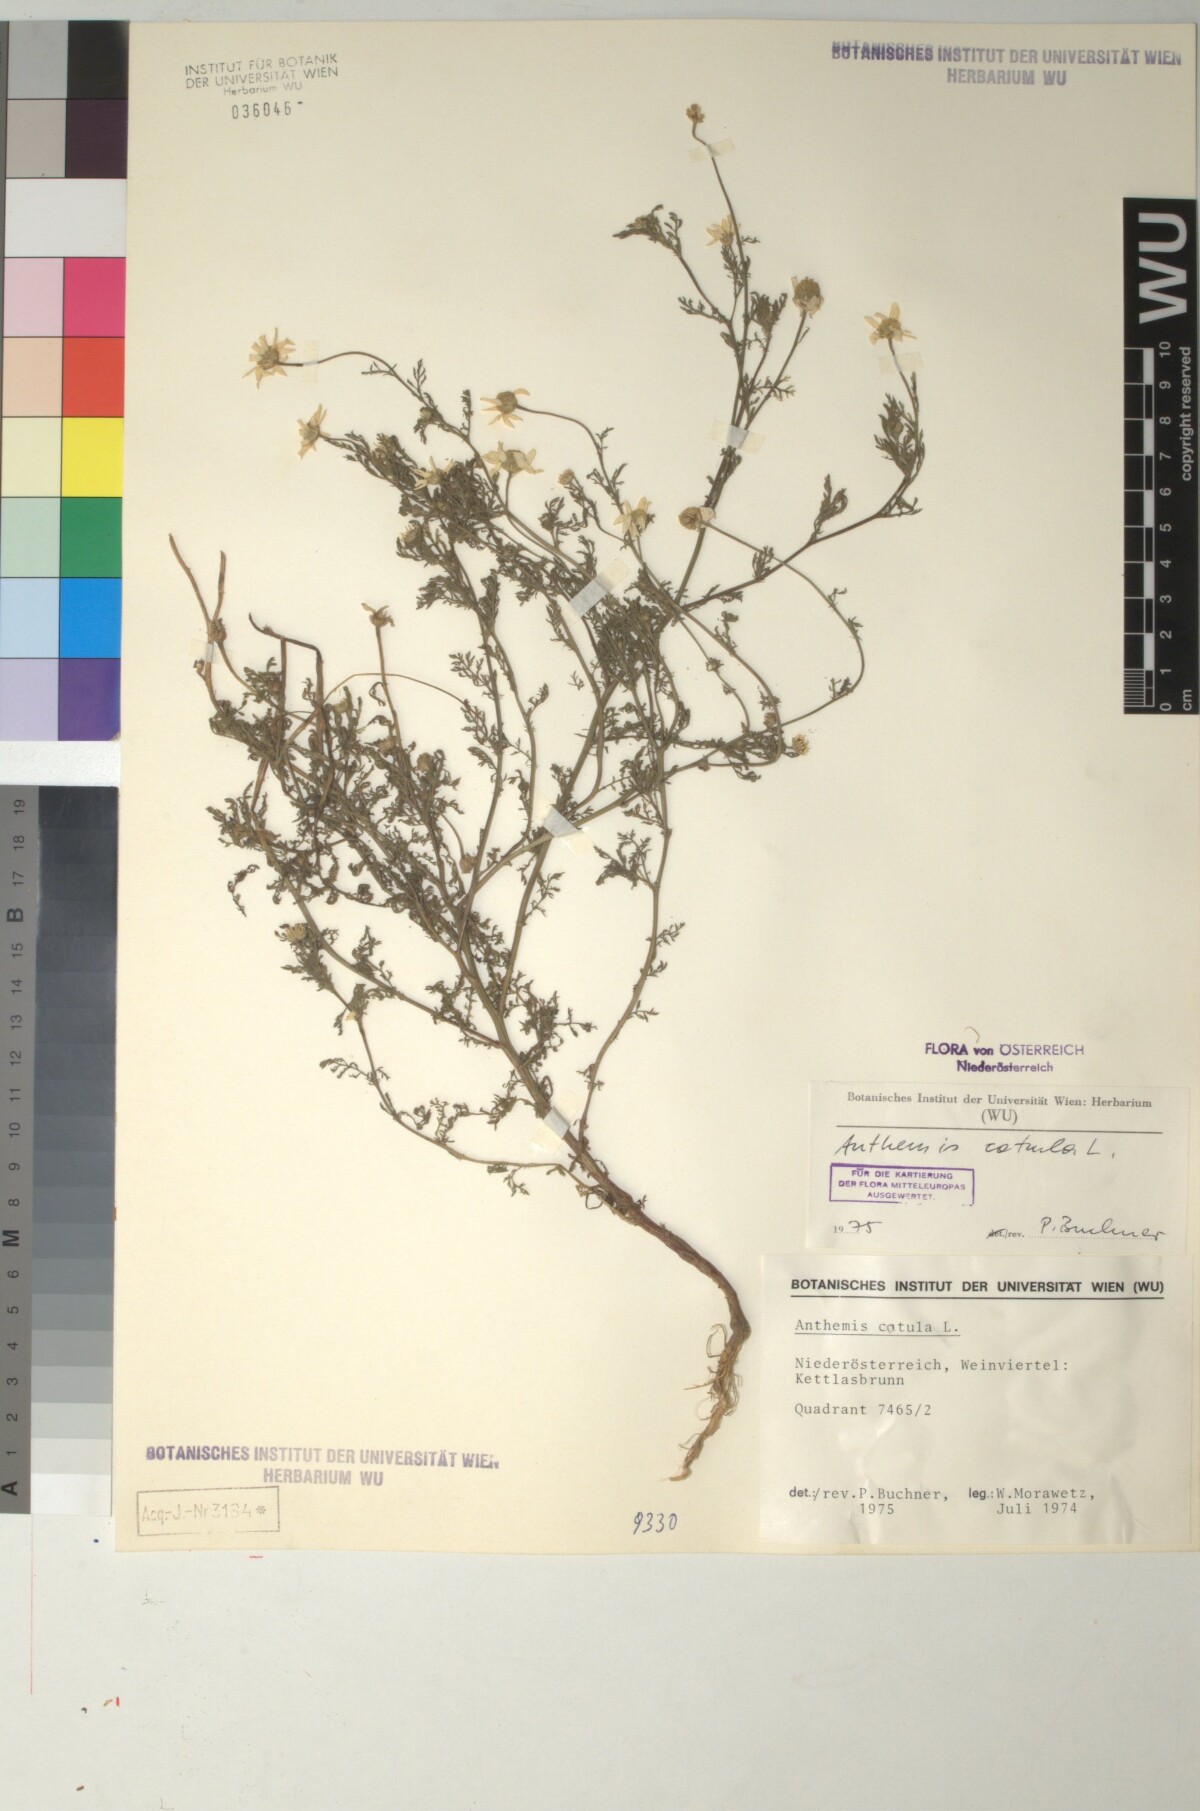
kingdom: Plantae
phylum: Tracheophyta
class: Magnoliopsida
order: Asterales
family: Asteraceae
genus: Anthemis
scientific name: Anthemis cotula
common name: Stinking chamomile
